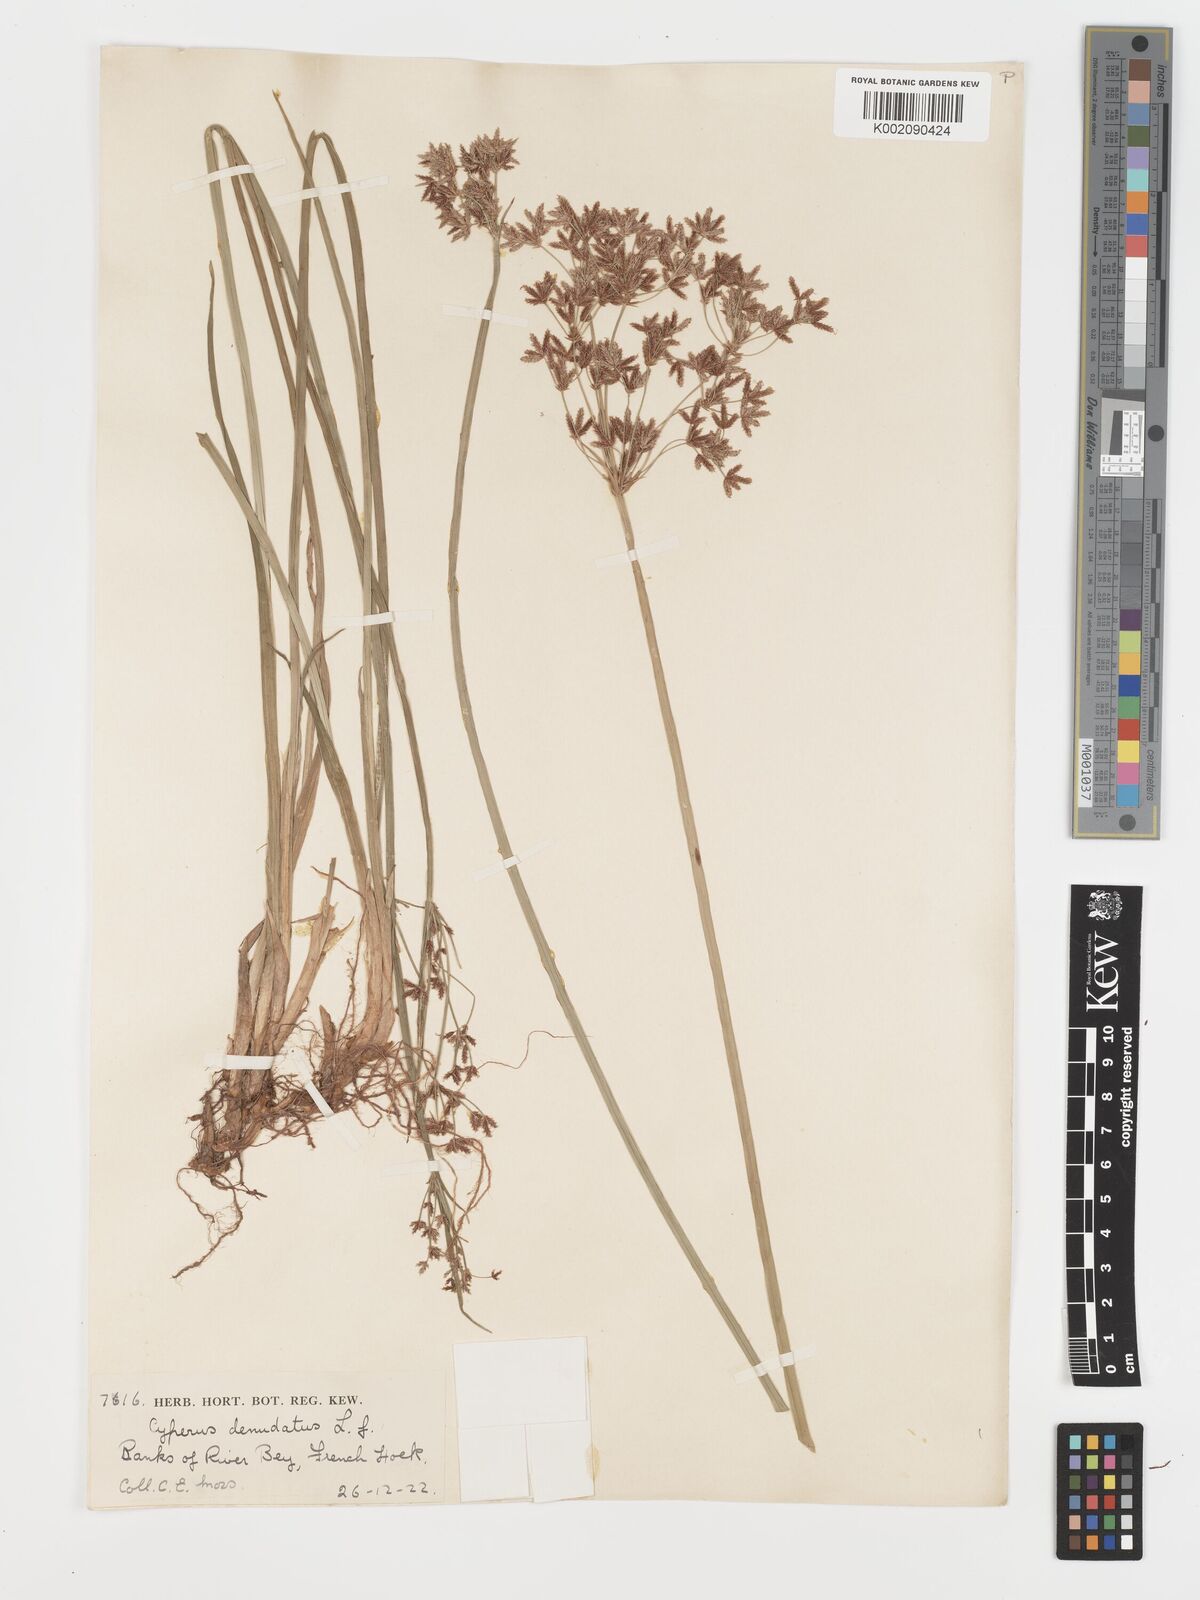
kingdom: Plantae
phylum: Tracheophyta
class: Liliopsida
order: Poales
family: Cyperaceae
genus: Cyperus
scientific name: Cyperus denudatus
